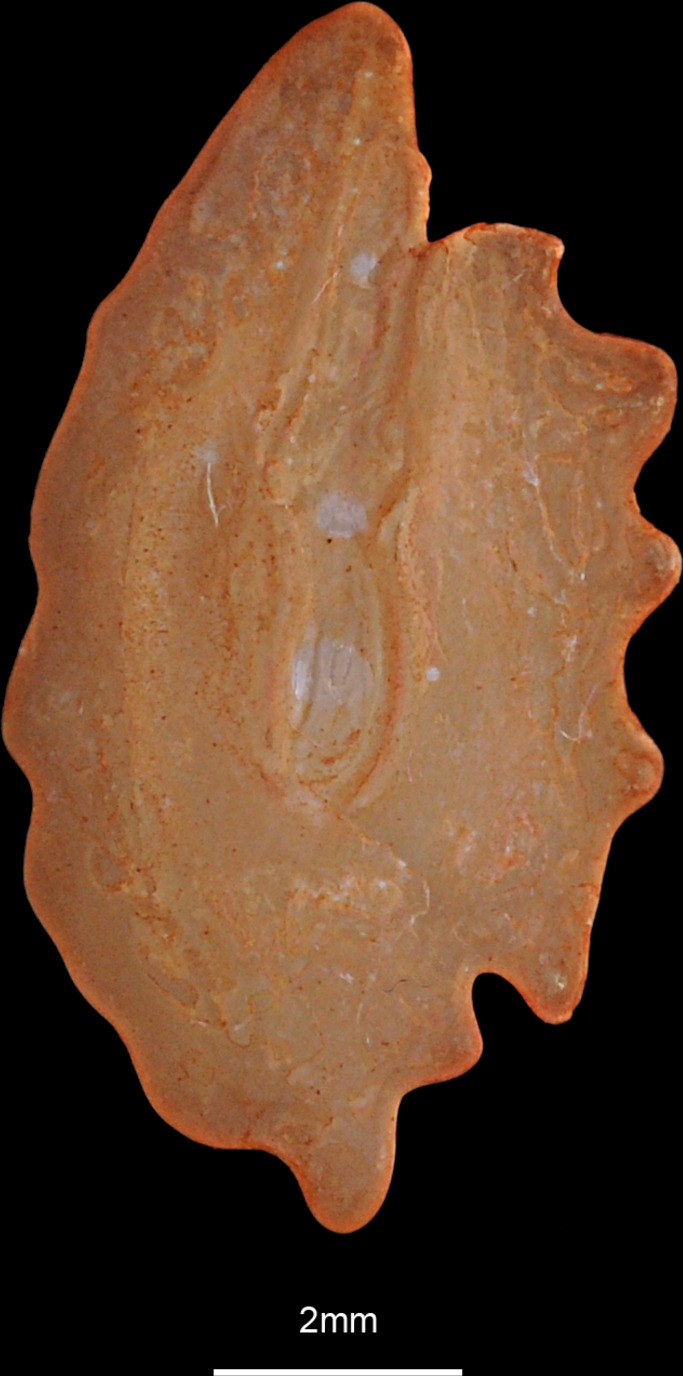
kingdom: Animalia
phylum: Chordata
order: Pleuronectiformes
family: Scophthalmidae
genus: Scophthalmus
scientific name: Scophthalmus rhombus
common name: Brill
